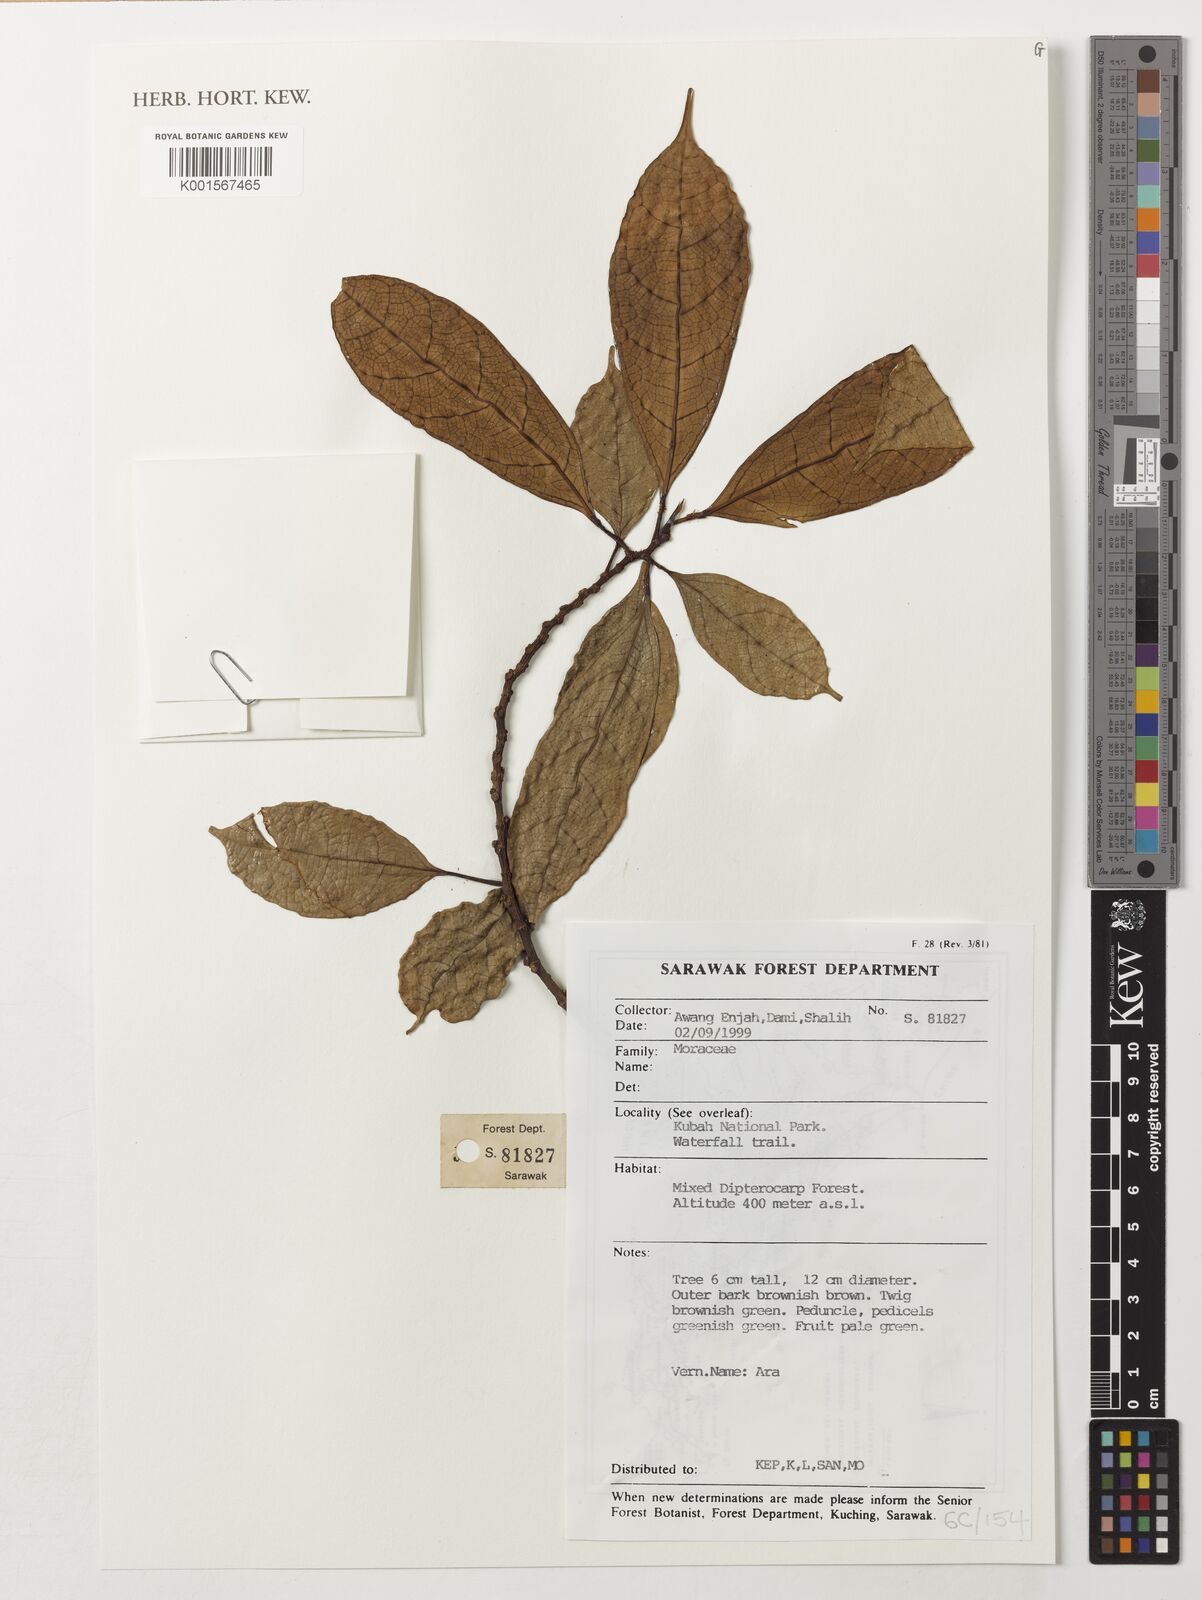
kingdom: Plantae
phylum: Tracheophyta
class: Magnoliopsida
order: Rosales
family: Moraceae
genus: Ficus
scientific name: Ficus
